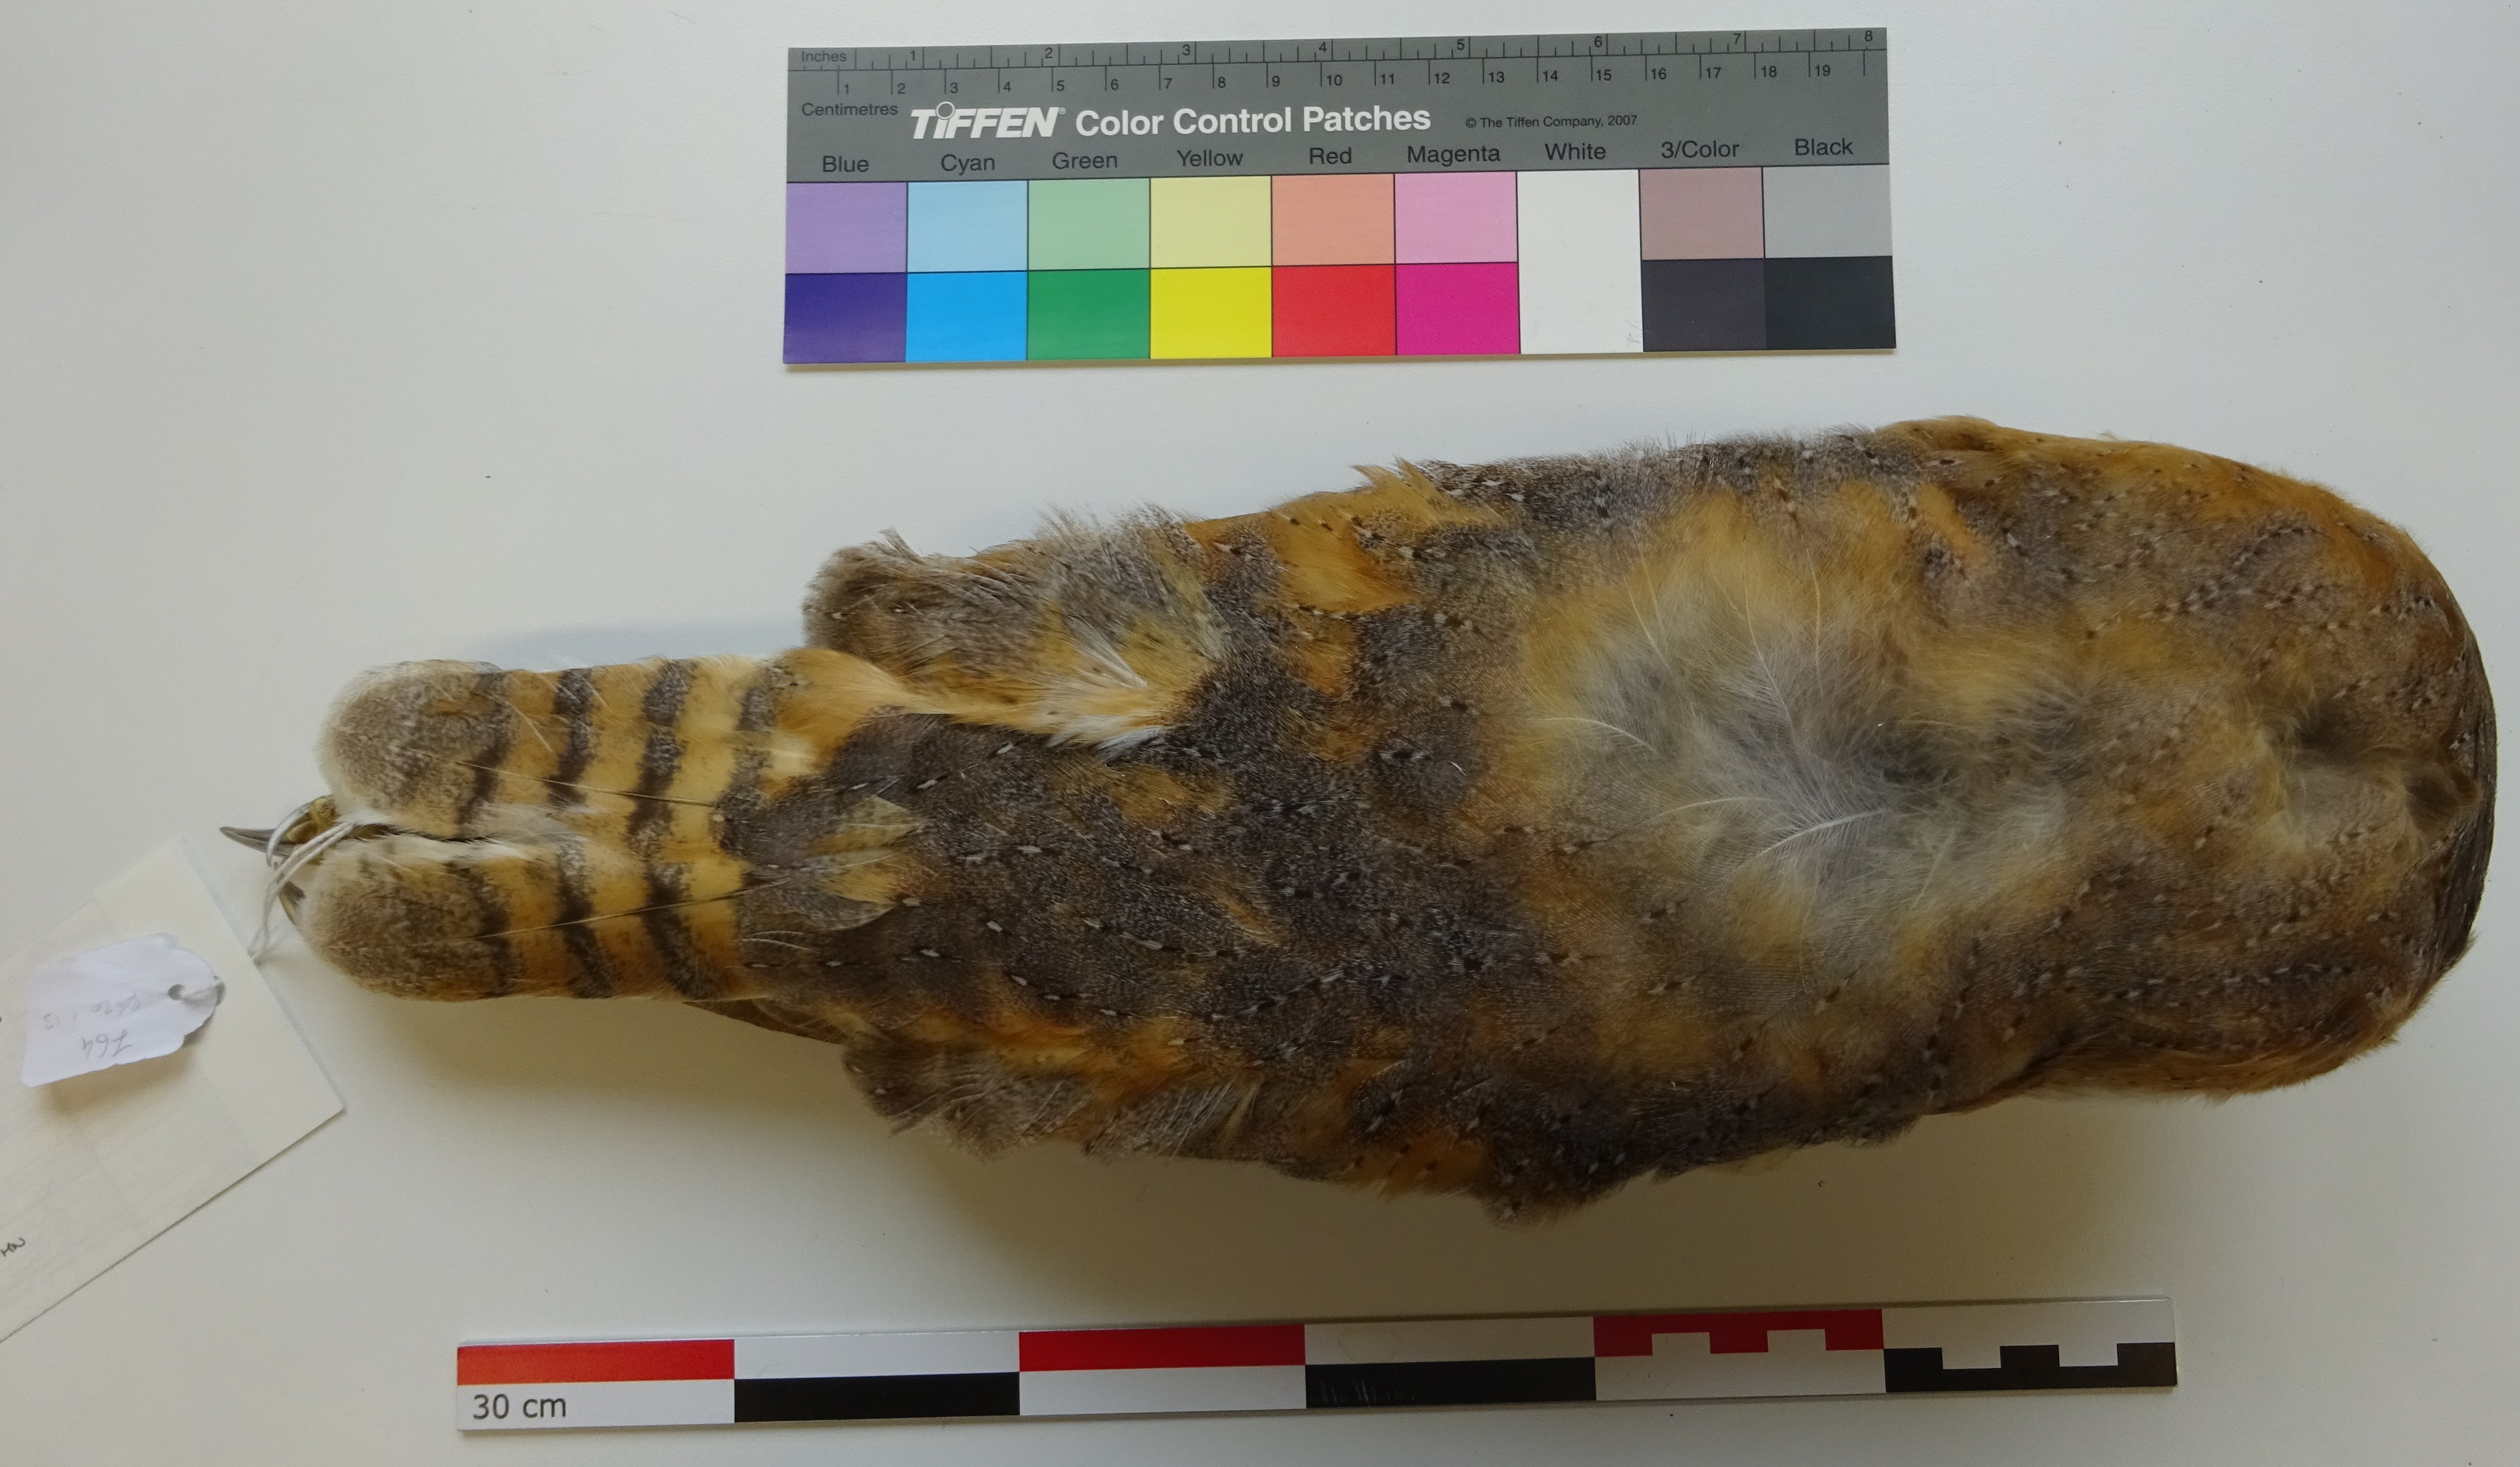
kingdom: Animalia
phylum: Chordata
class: Aves
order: Strigiformes
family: Tytonidae
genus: Tyto
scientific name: Tyto alba
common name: Barn owl
